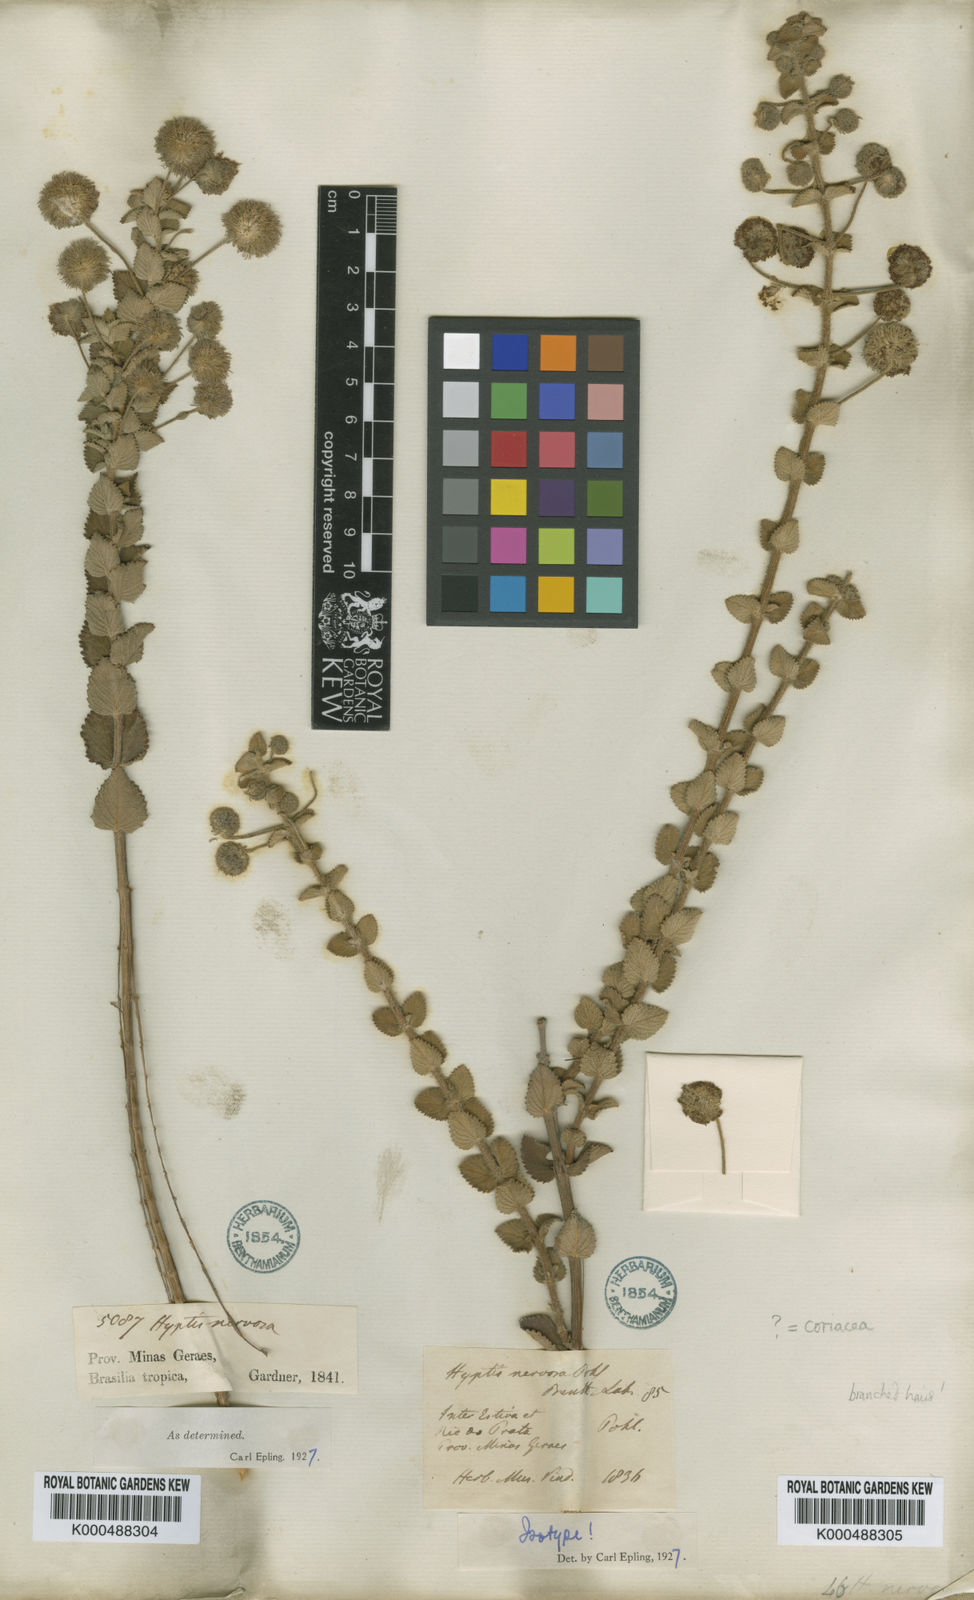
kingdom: Plantae
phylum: Tracheophyta
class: Magnoliopsida
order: Lamiales
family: Lamiaceae
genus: Cyanocephalus
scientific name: Cyanocephalus lippioides
